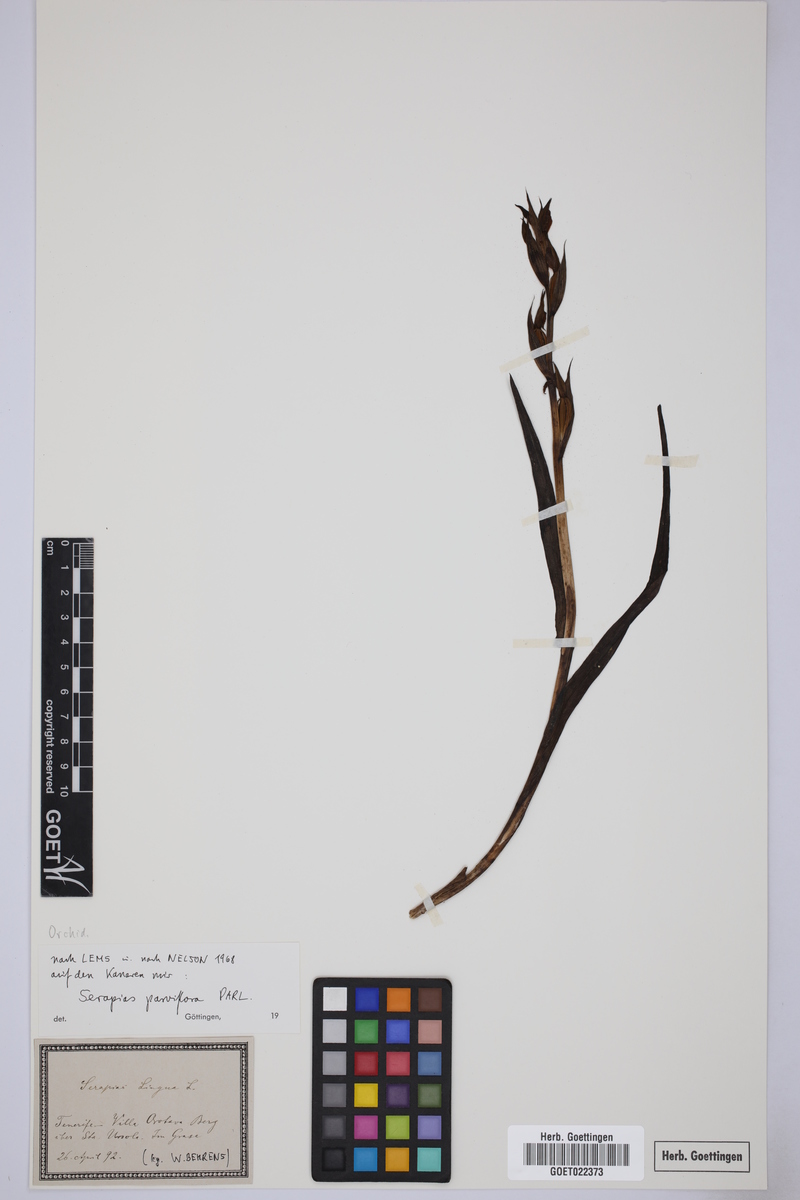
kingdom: Plantae
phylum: Tracheophyta
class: Liliopsida
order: Asparagales
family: Orchidaceae
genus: Serapias
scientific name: Serapias parviflora
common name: Small-flowered tongue-orchid
